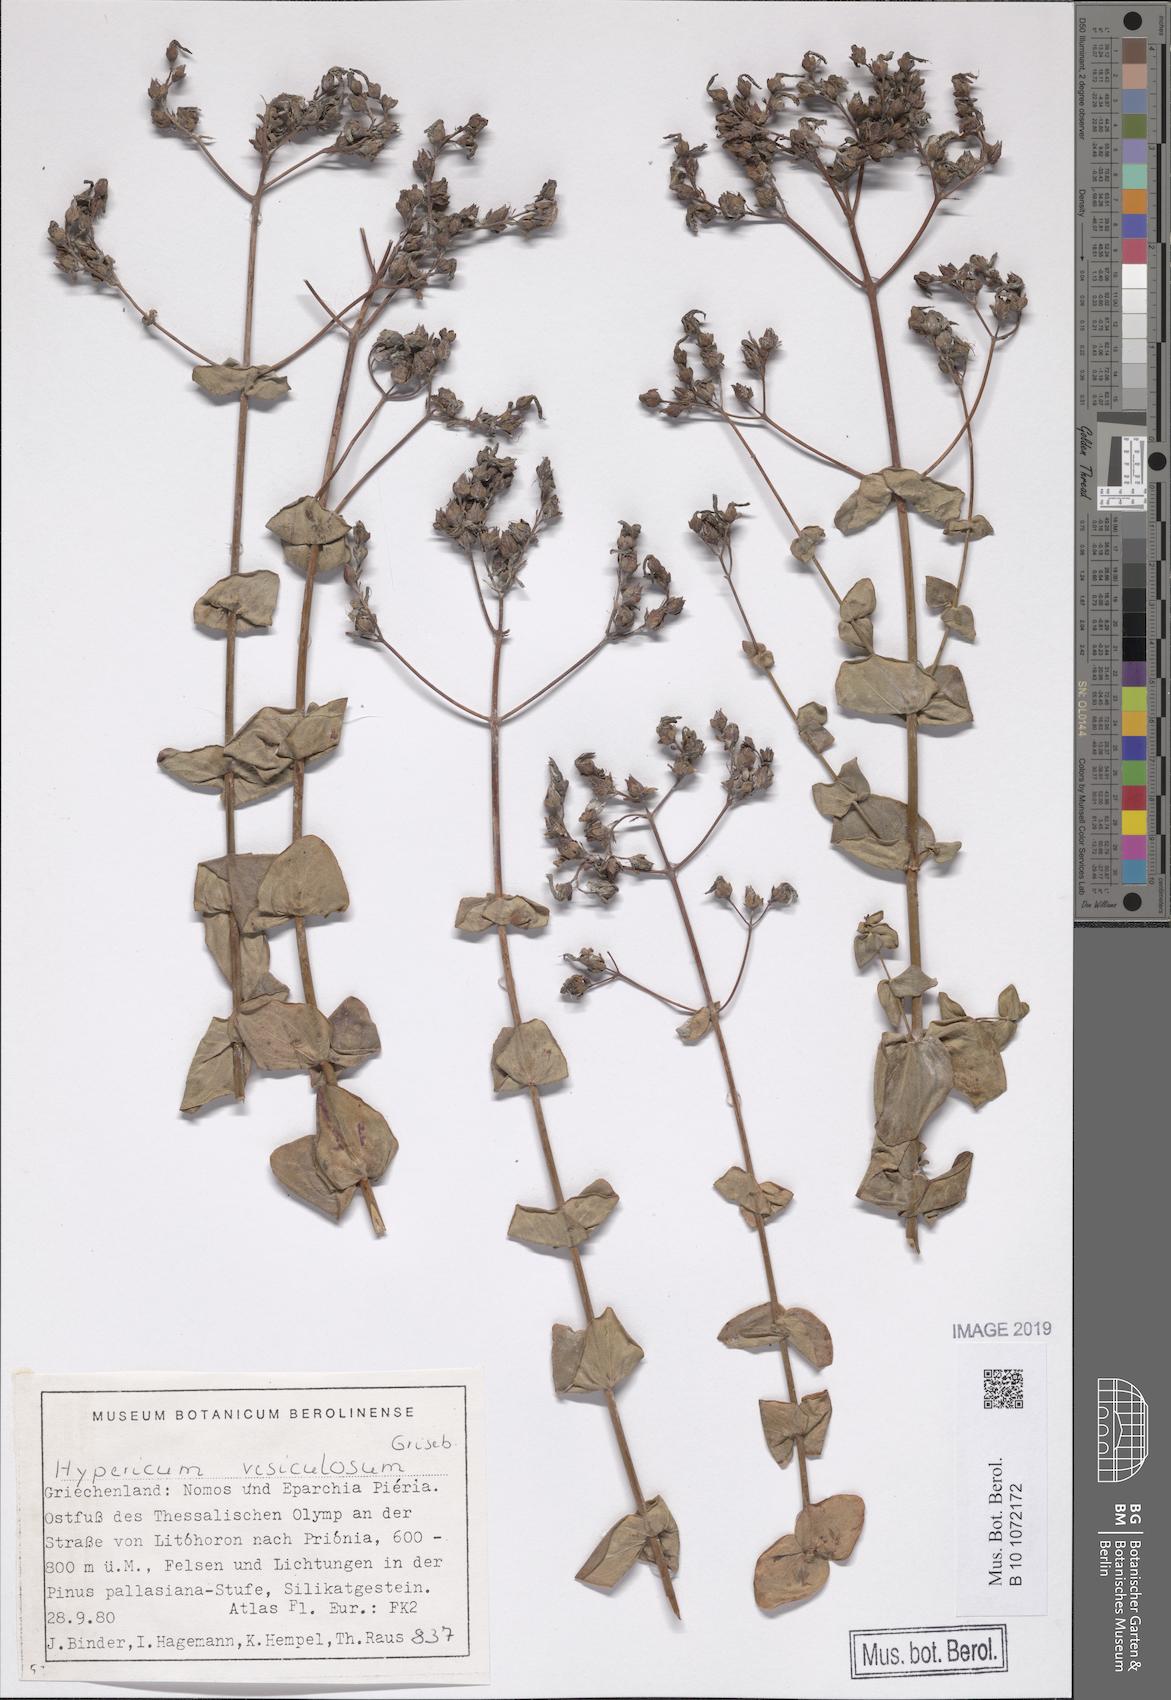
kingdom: Plantae
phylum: Tracheophyta
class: Magnoliopsida
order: Malpighiales
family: Hypericaceae
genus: Hypericum
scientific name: Hypericum vesiculosum
